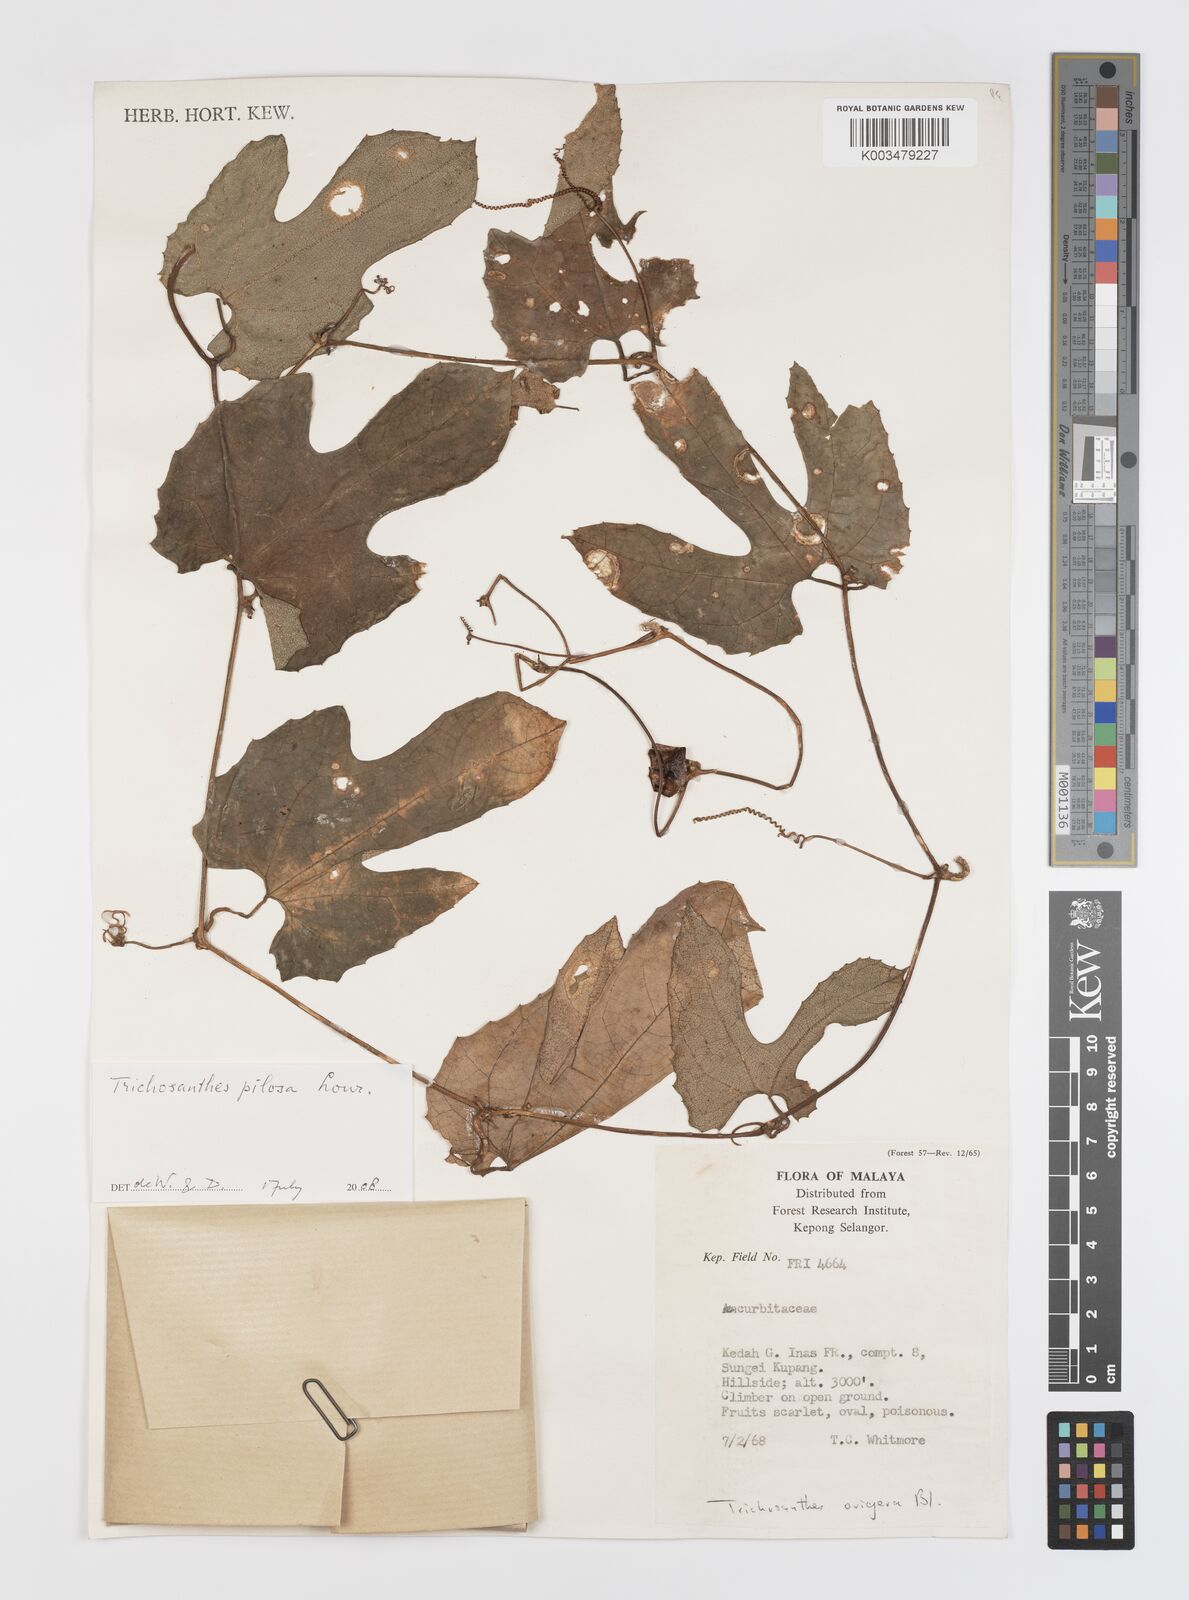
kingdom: Plantae
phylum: Tracheophyta
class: Magnoliopsida
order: Cucurbitales
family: Cucurbitaceae
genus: Trichosanthes
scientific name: Trichosanthes pilosa
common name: Snake gourd
